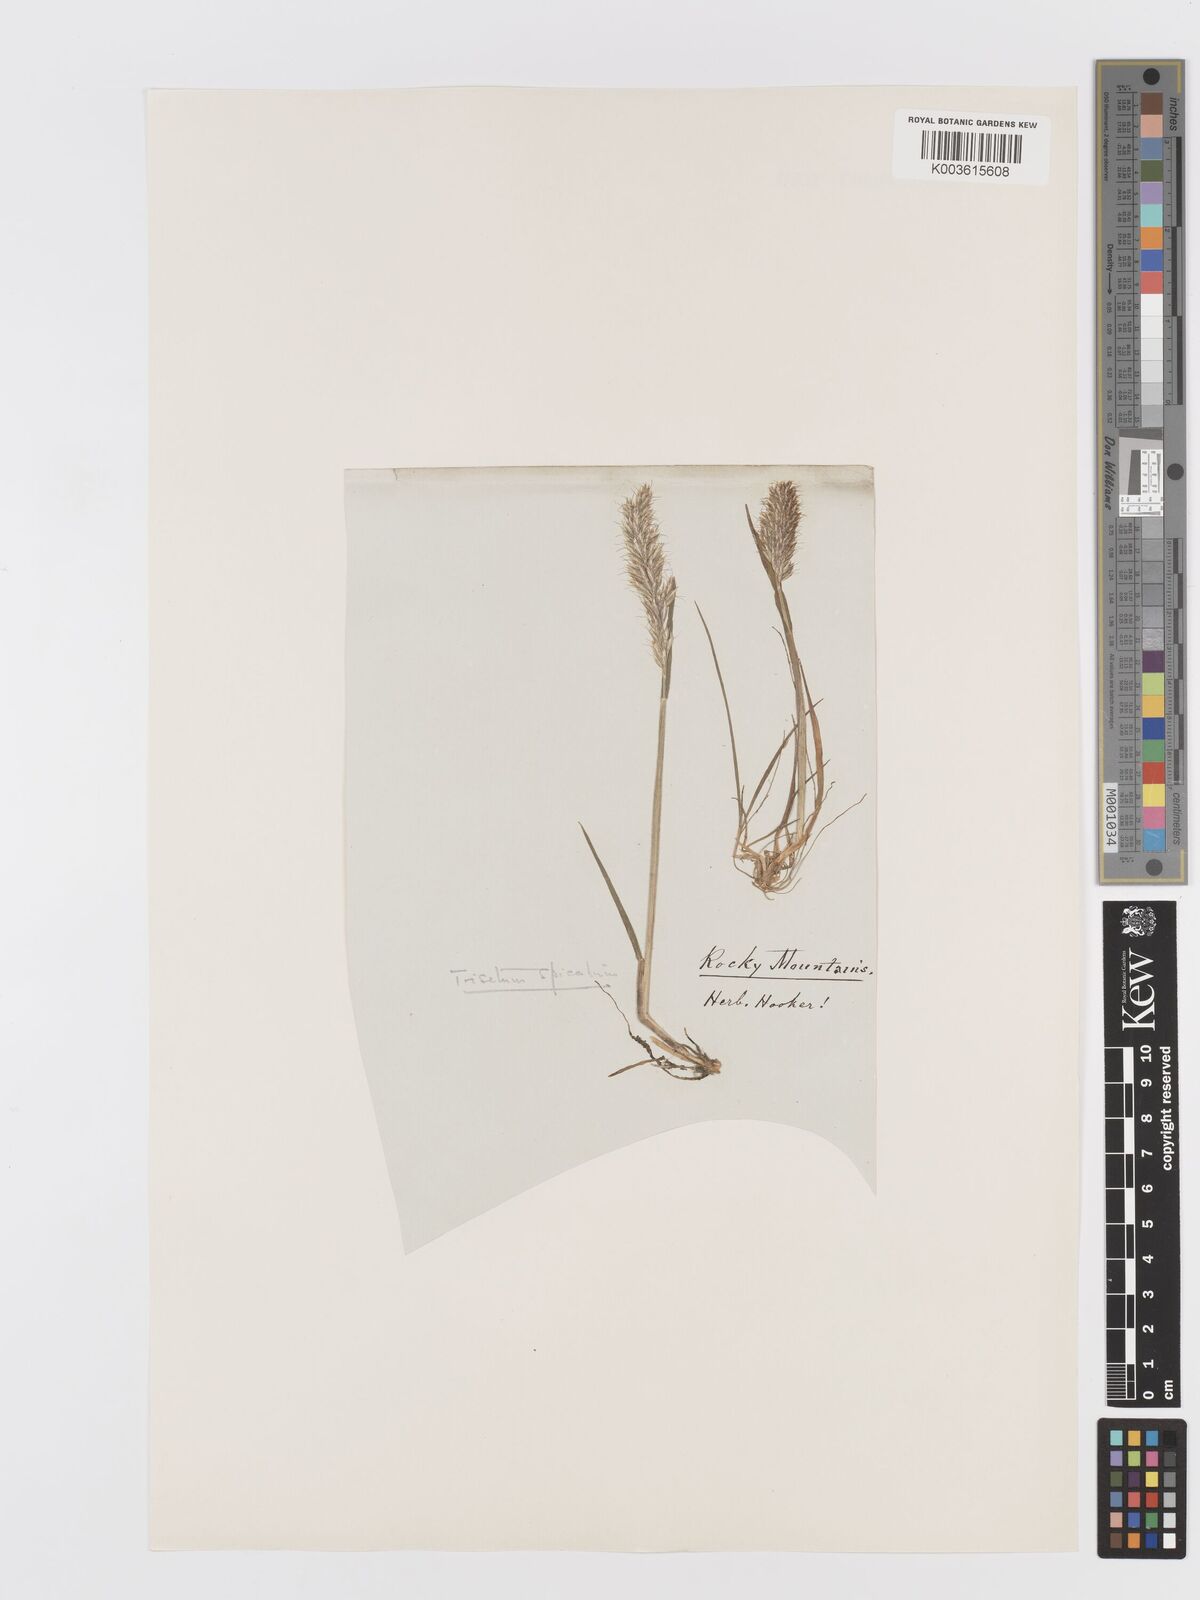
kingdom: Plantae
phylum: Tracheophyta
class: Liliopsida
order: Poales
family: Poaceae
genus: Koeleria
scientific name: Koeleria spicata
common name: Mountain trisetum
